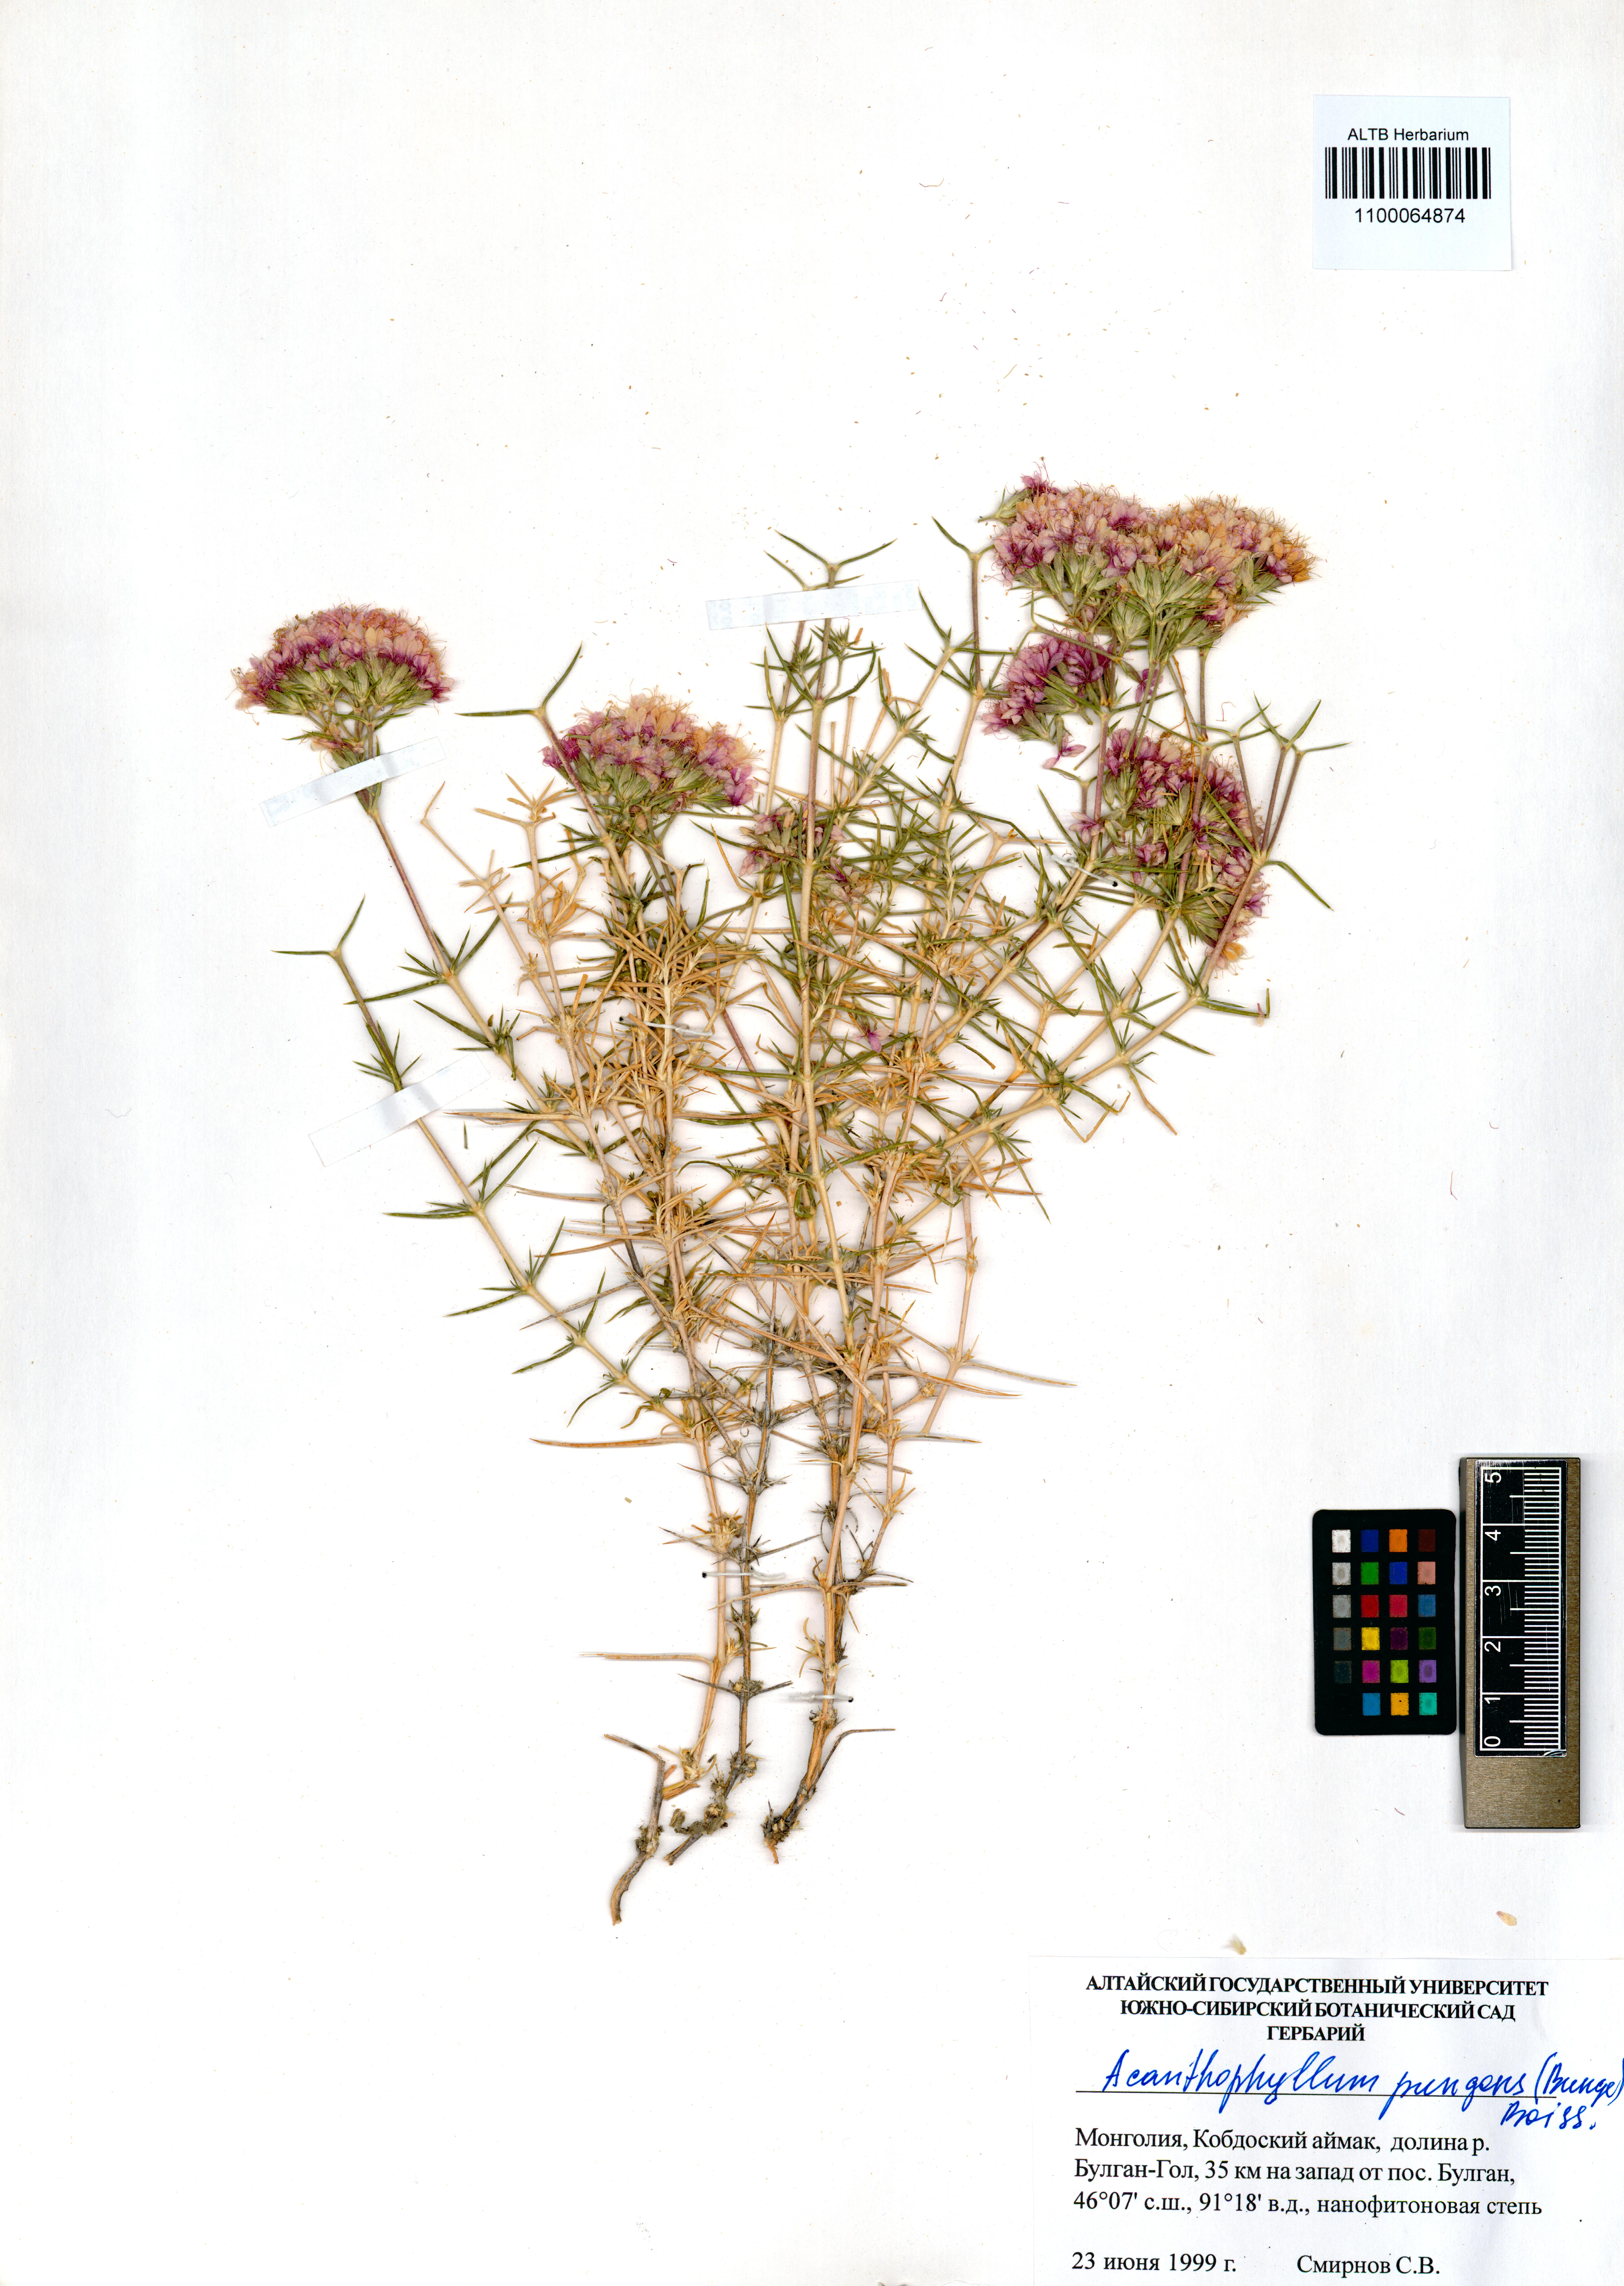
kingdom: Plantae
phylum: Tracheophyta
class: Magnoliopsida
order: Caryophyllales
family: Caryophyllaceae
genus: Acanthophyllum
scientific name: Acanthophyllum pungens
